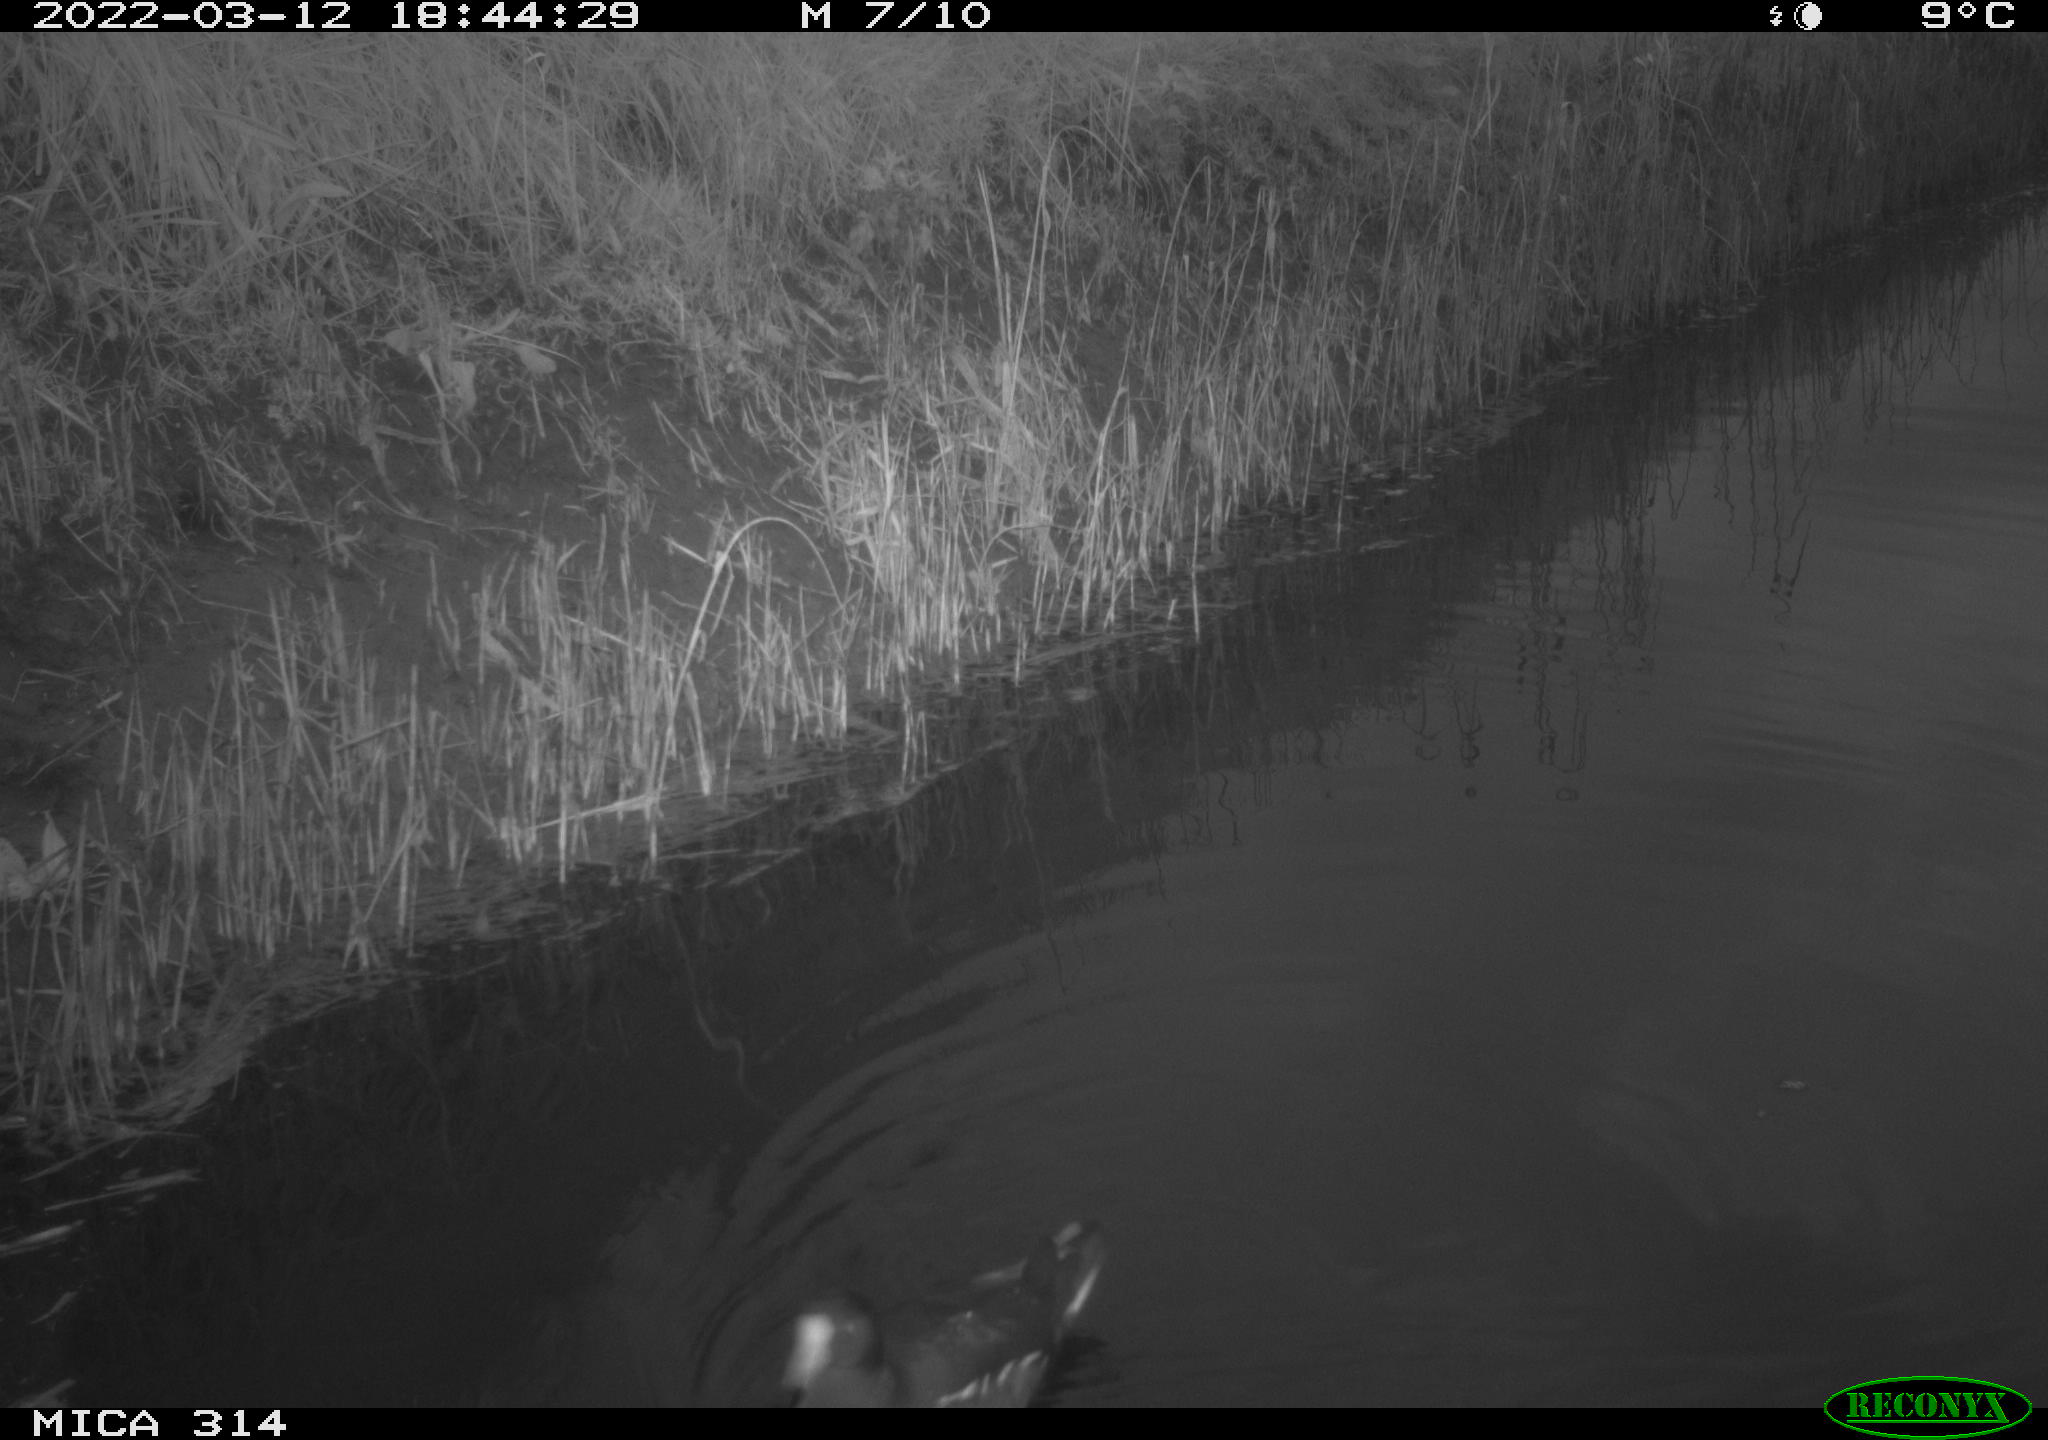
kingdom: Animalia
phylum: Chordata
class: Aves
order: Gruiformes
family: Rallidae
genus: Gallinula
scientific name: Gallinula chloropus
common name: Common moorhen
